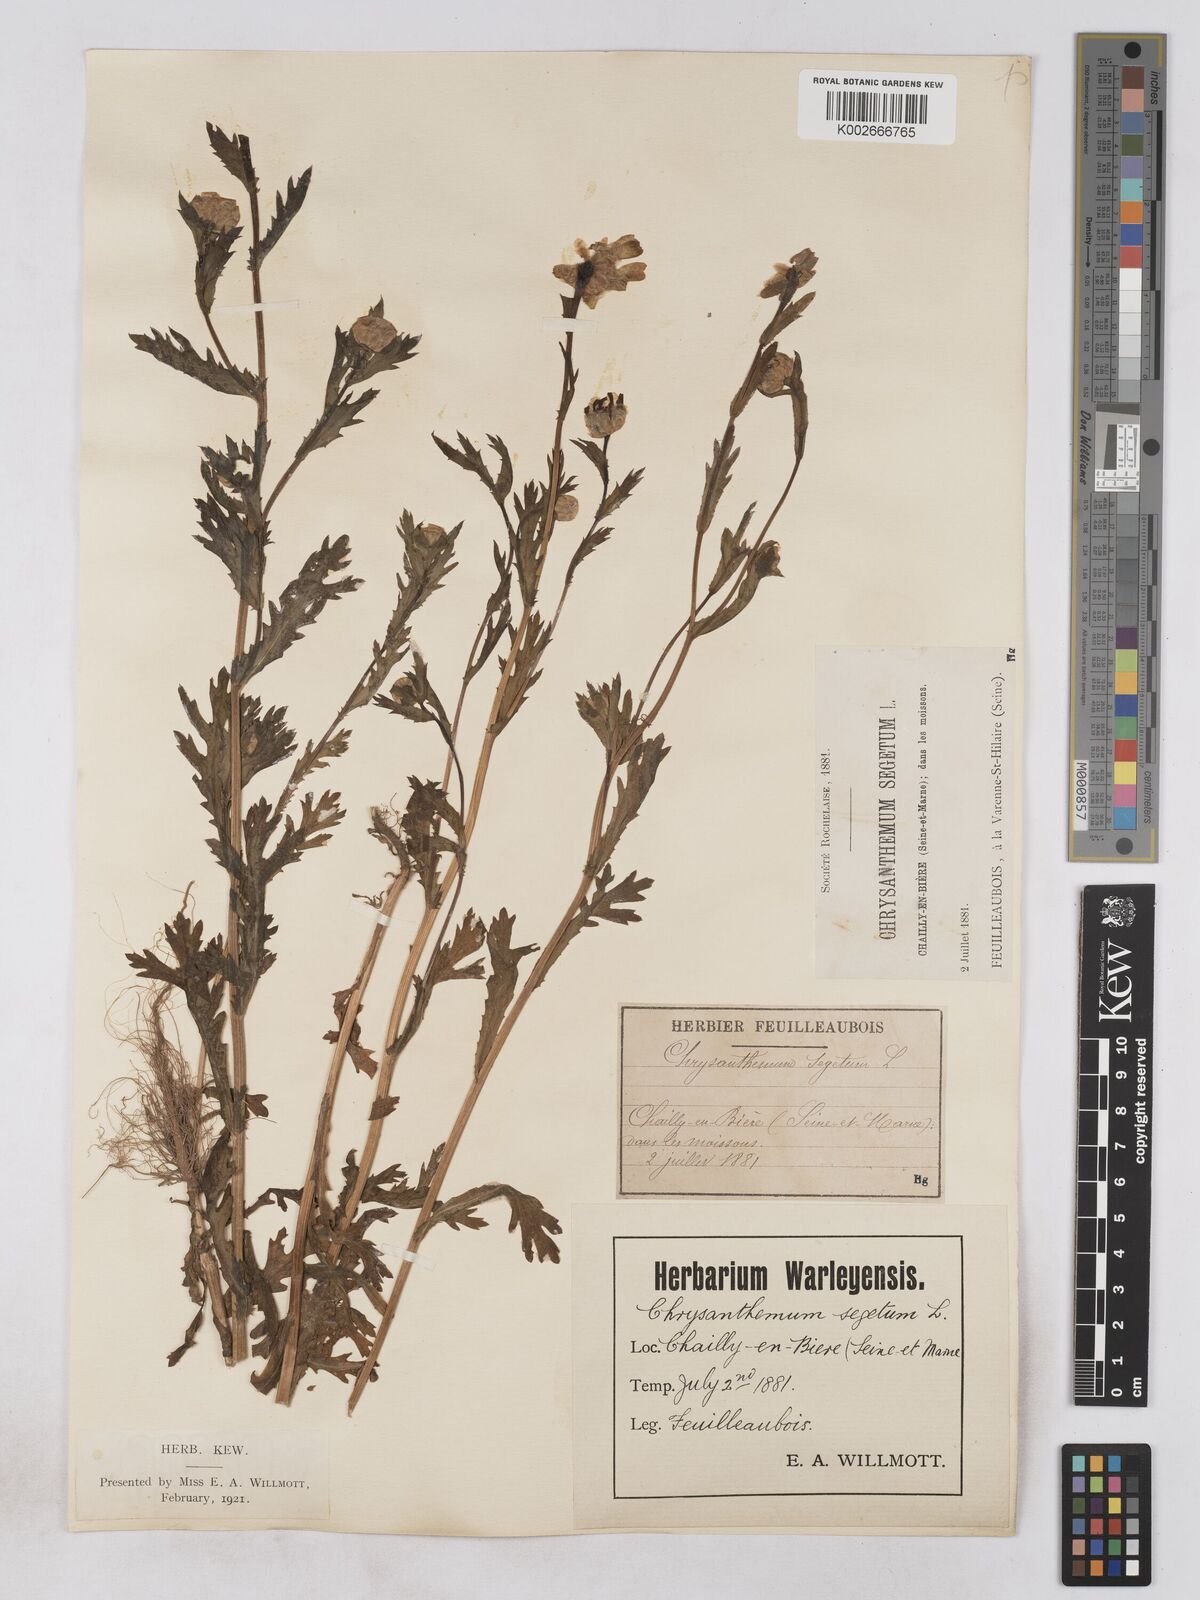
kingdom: Plantae
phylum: Tracheophyta
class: Magnoliopsida
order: Asterales
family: Asteraceae
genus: Glebionis
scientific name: Glebionis segetum
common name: Corndaisy
